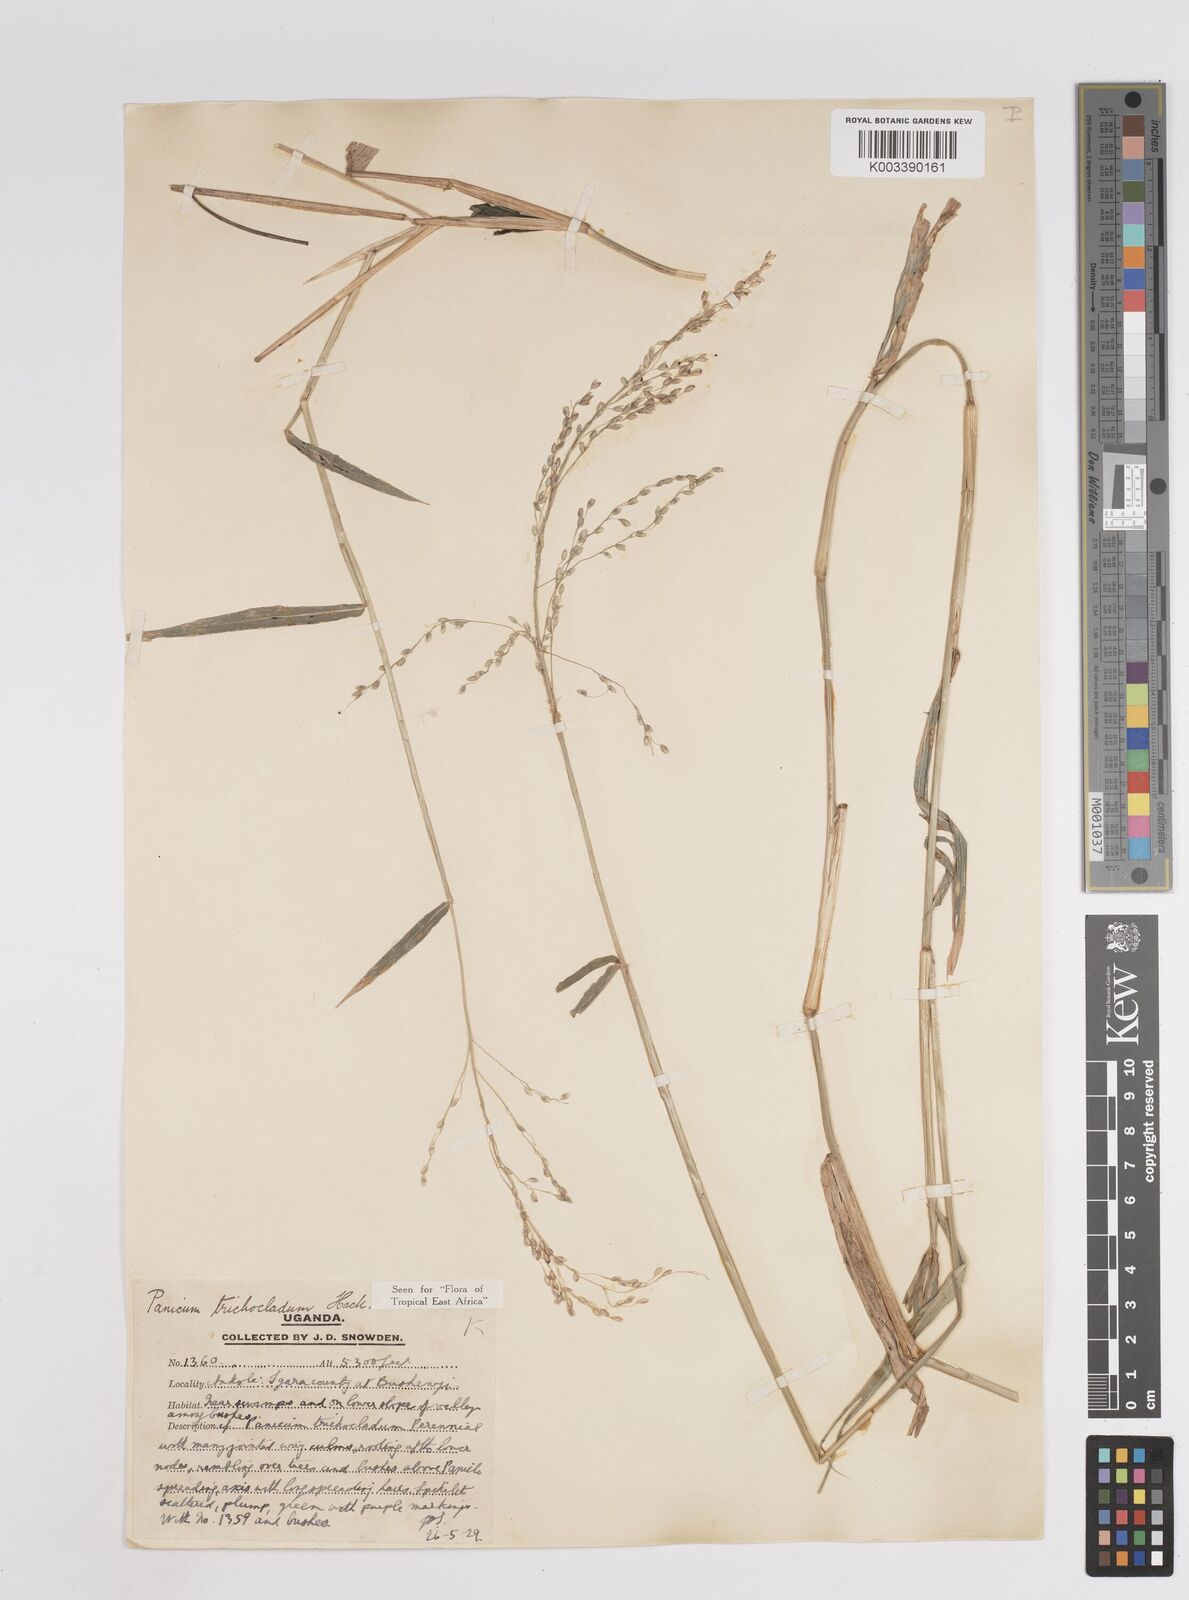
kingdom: Plantae
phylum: Tracheophyta
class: Liliopsida
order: Poales
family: Poaceae
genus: Panicum
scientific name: Panicum trichocladum
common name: Donkey grass
